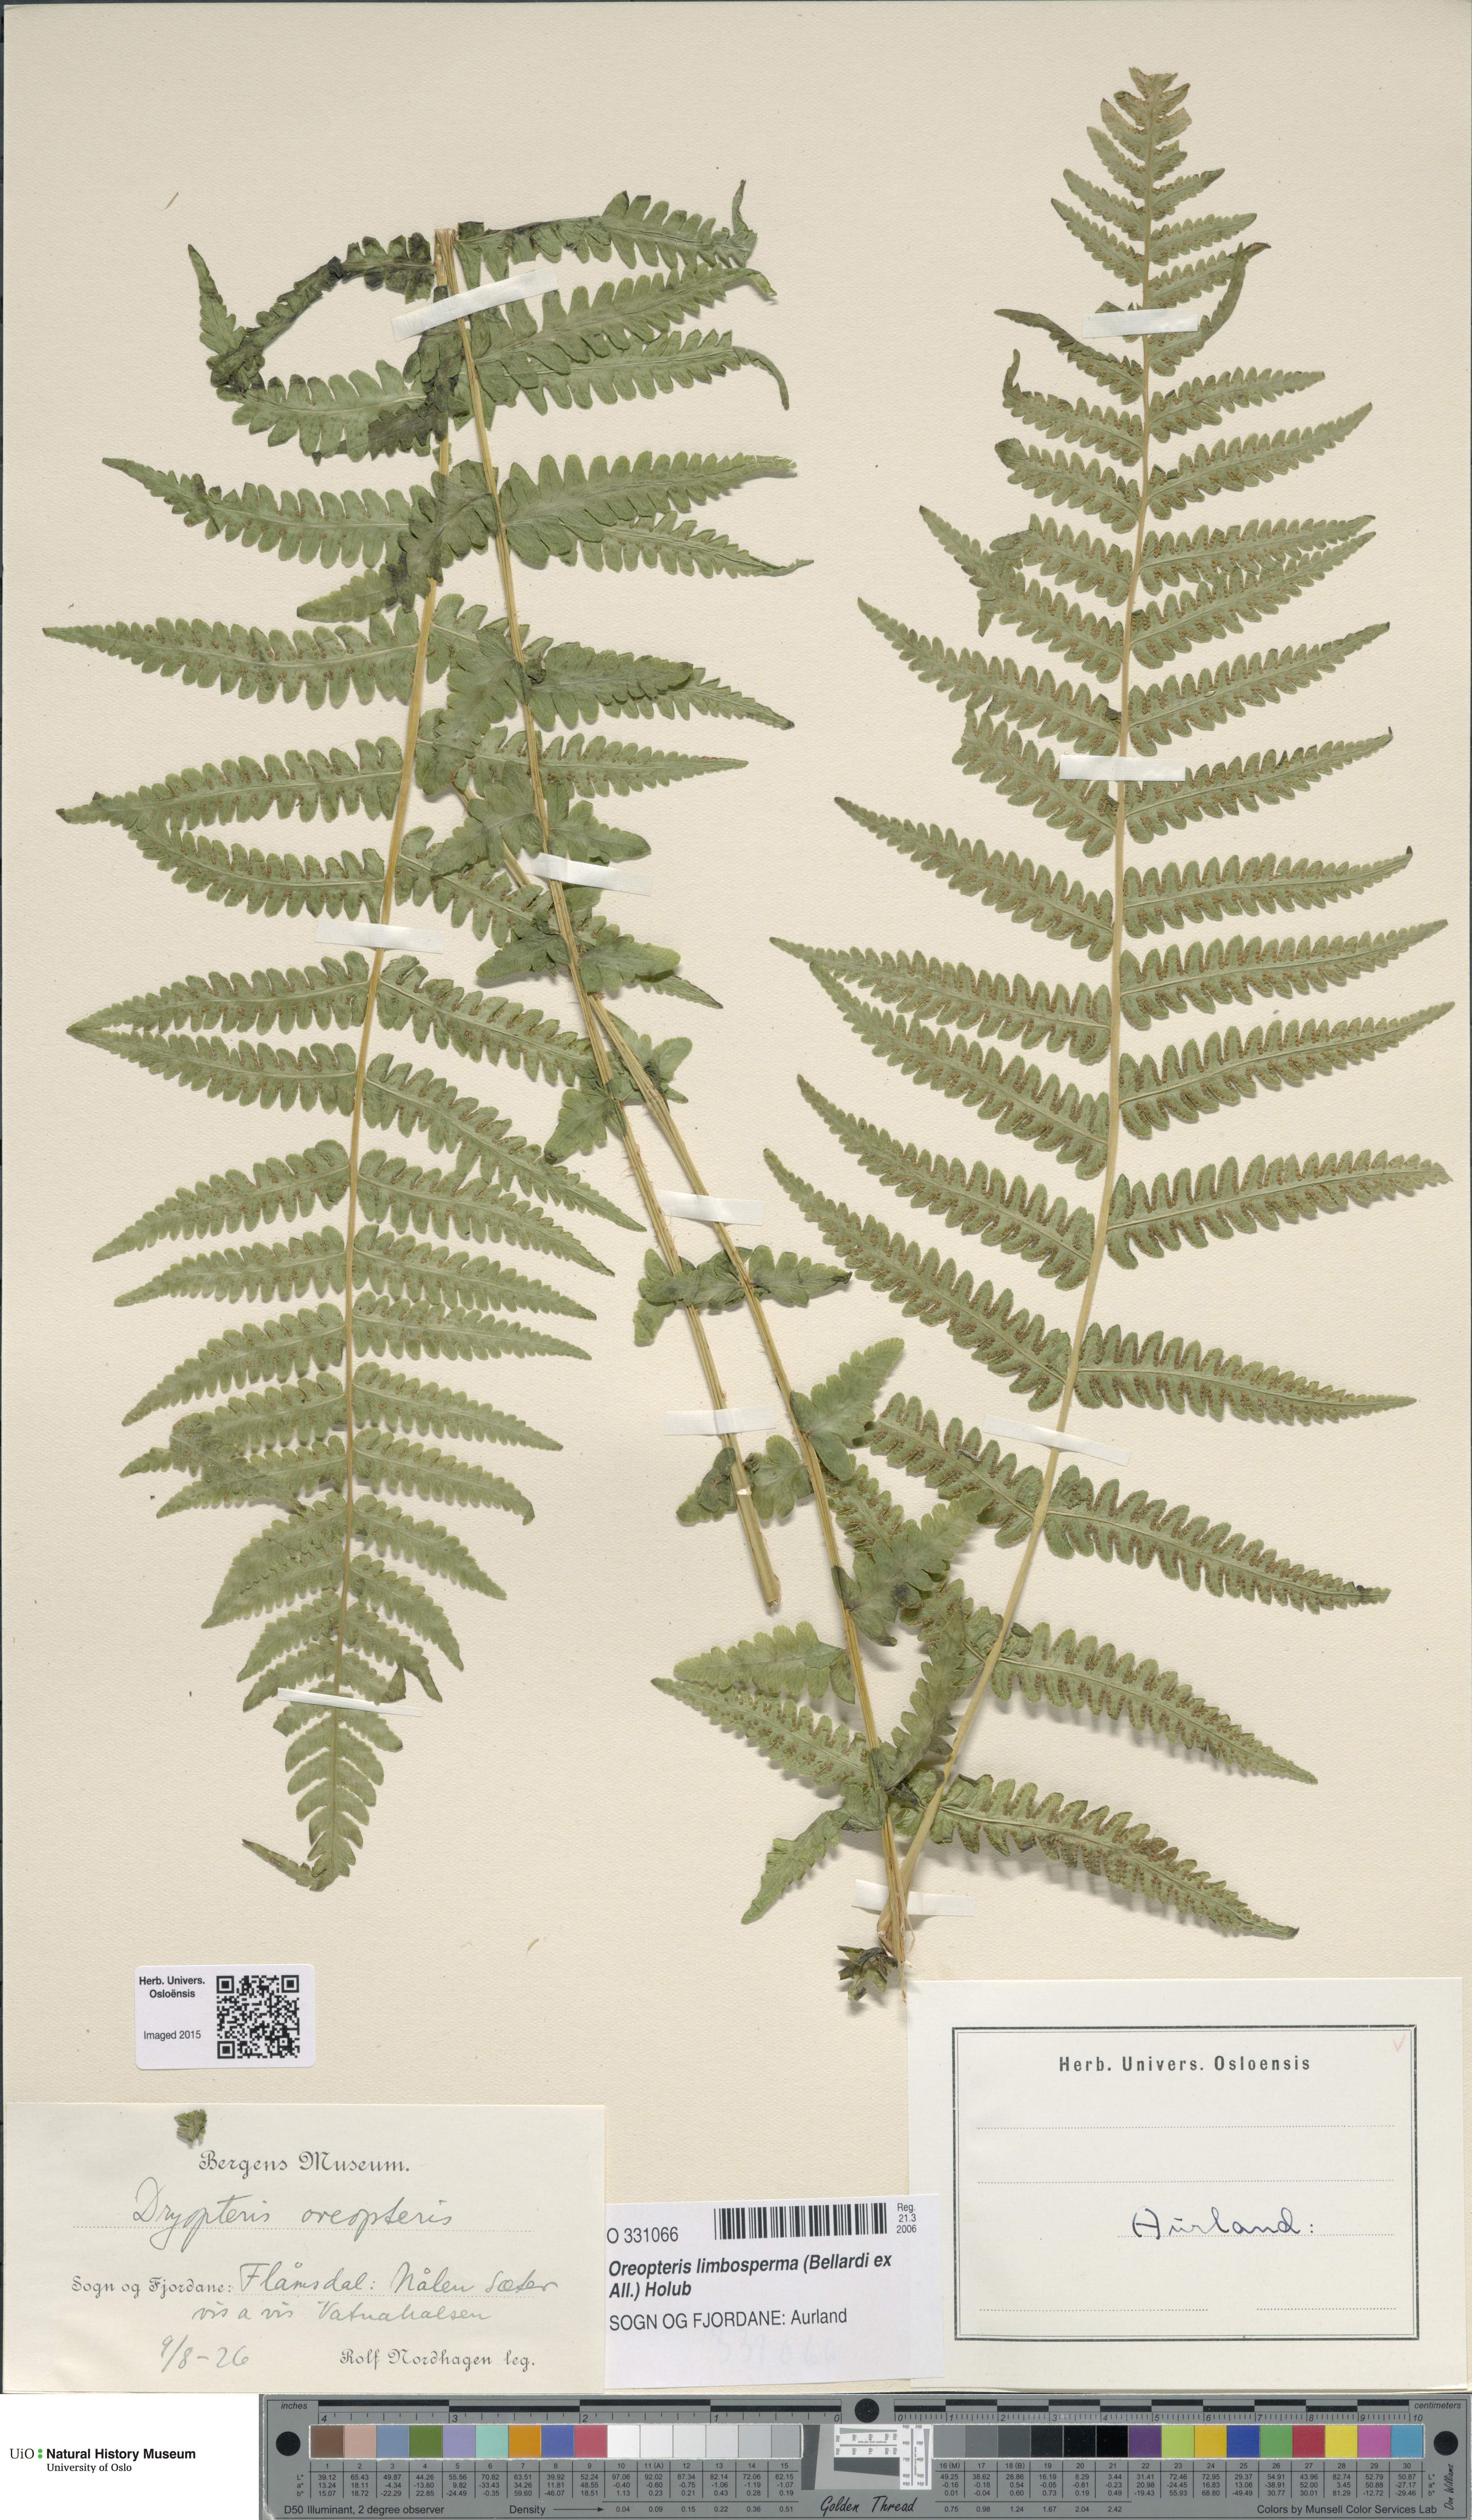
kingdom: Plantae
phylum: Tracheophyta
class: Polypodiopsida
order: Polypodiales
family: Thelypteridaceae
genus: Oreopteris
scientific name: Oreopteris limbosperma
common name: Lemon-scented fern
